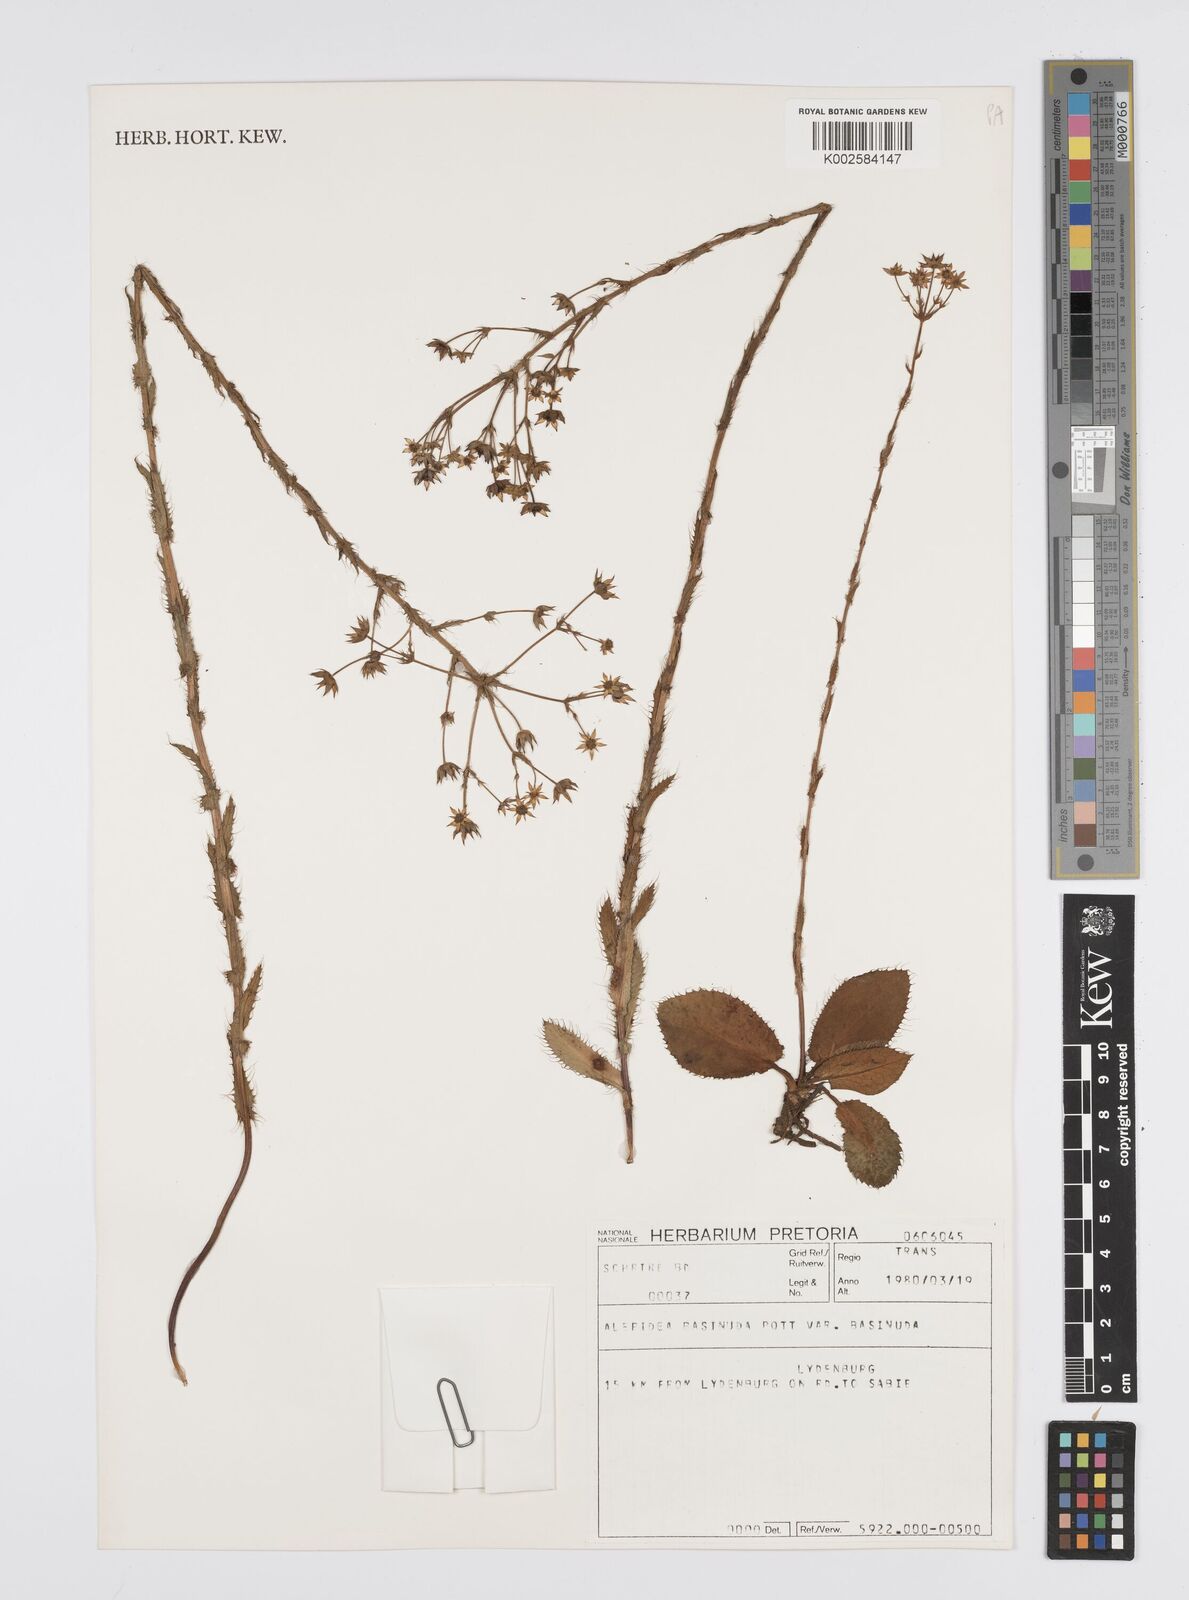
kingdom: Plantae
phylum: Tracheophyta
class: Magnoliopsida
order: Apiales
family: Apiaceae
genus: Alepidea
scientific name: Alepidea setifera
